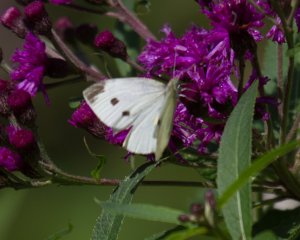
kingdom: Animalia
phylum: Arthropoda
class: Insecta
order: Lepidoptera
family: Pieridae
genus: Pieris
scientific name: Pieris rapae
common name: Cabbage White
